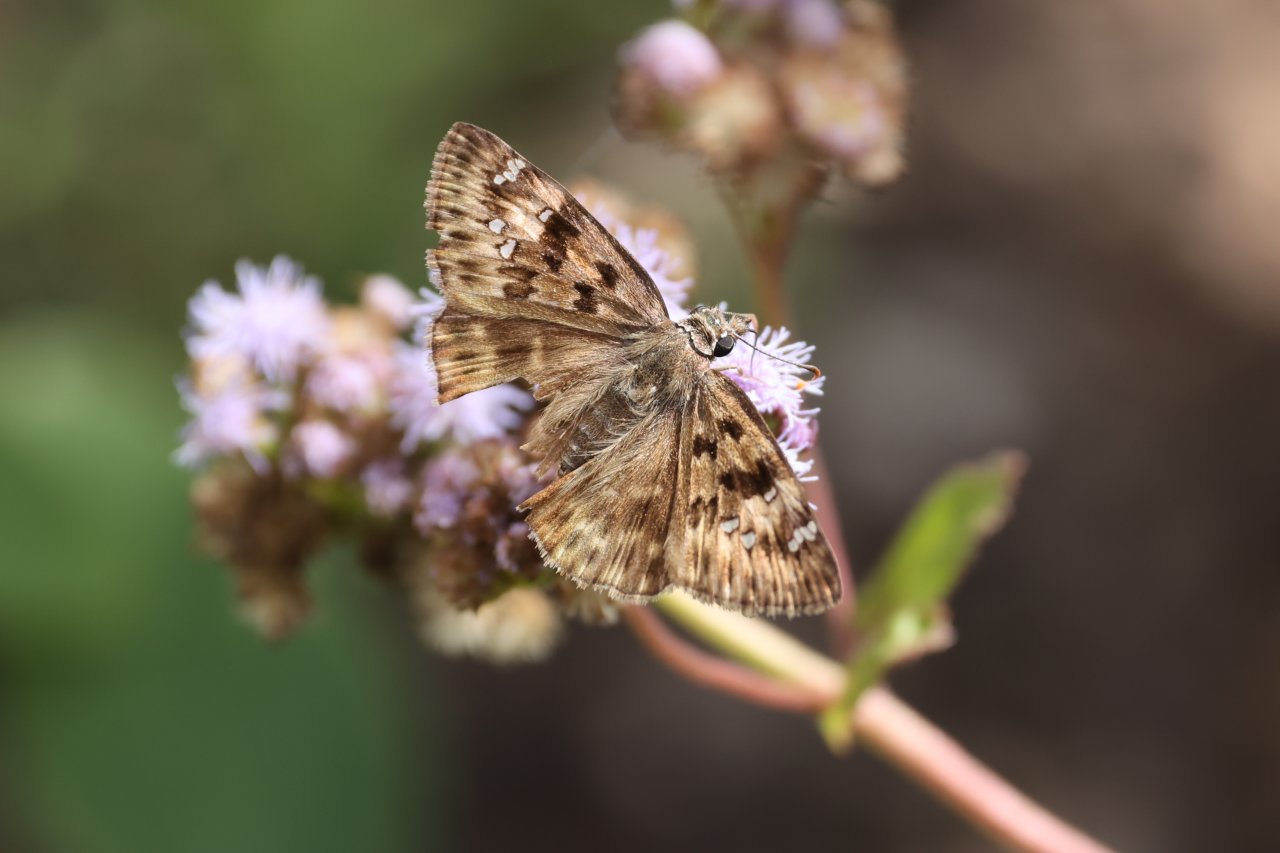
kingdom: Animalia
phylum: Arthropoda
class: Insecta
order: Lepidoptera
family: Hesperiidae
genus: Gesta
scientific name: Gesta
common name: Horace's Duskywing
